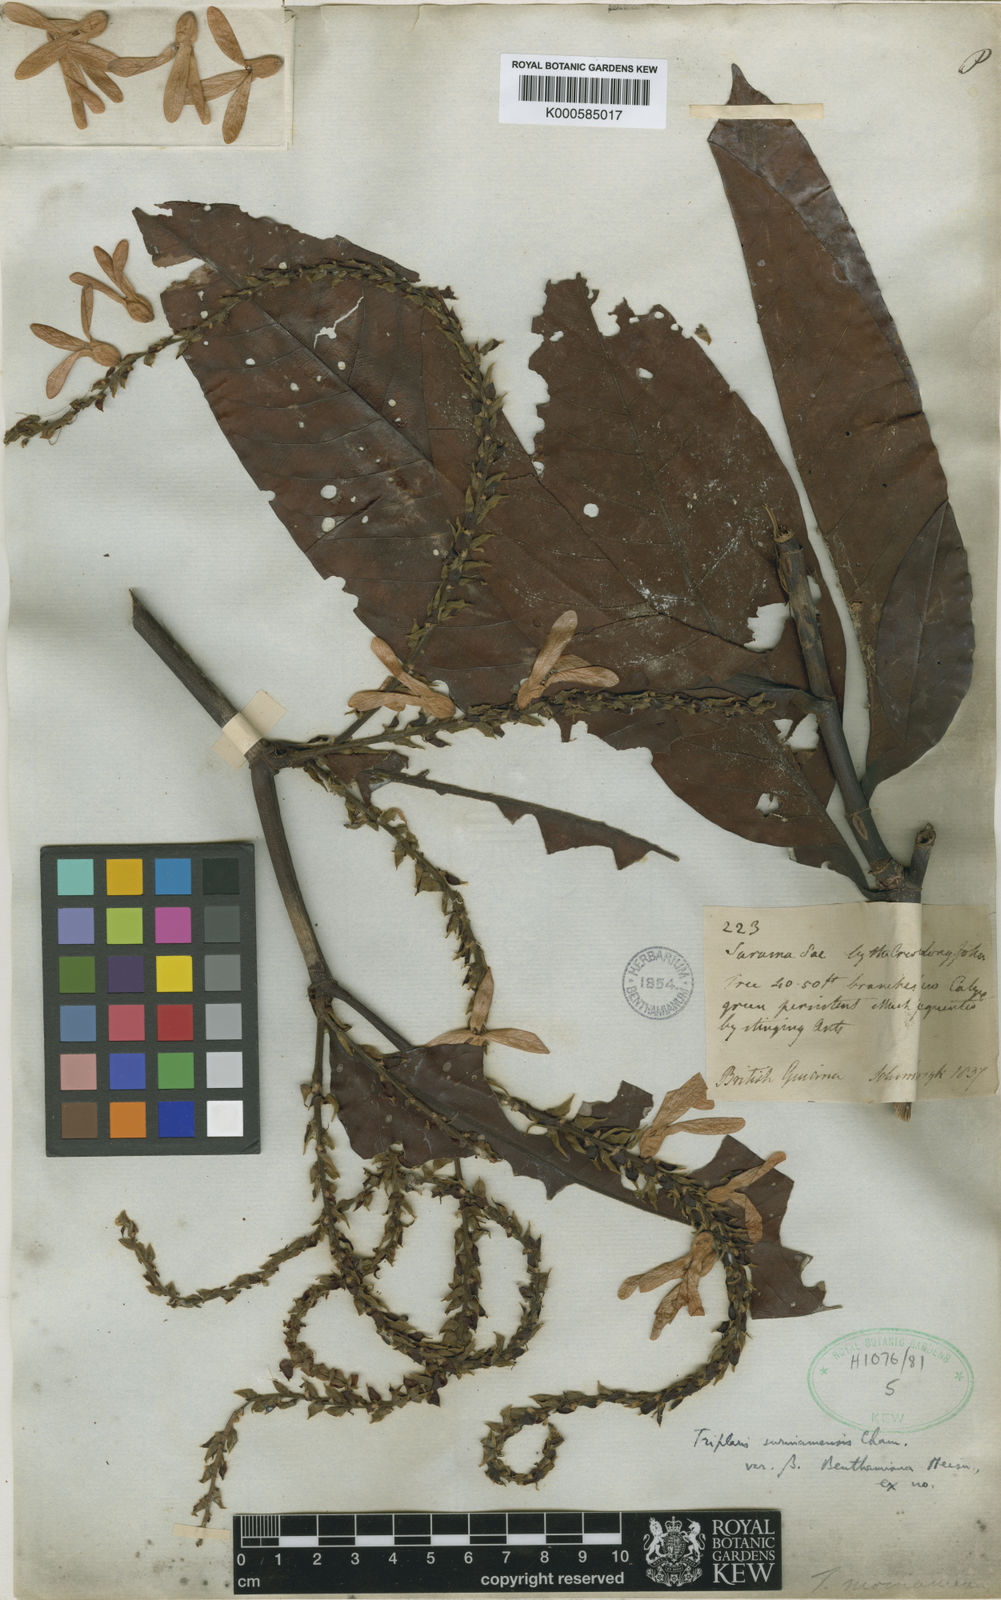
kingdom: Plantae
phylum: Tracheophyta
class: Magnoliopsida
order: Caryophyllales
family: Polygonaceae
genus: Triplaris
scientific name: Triplaris weigeltiana
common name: Long john
